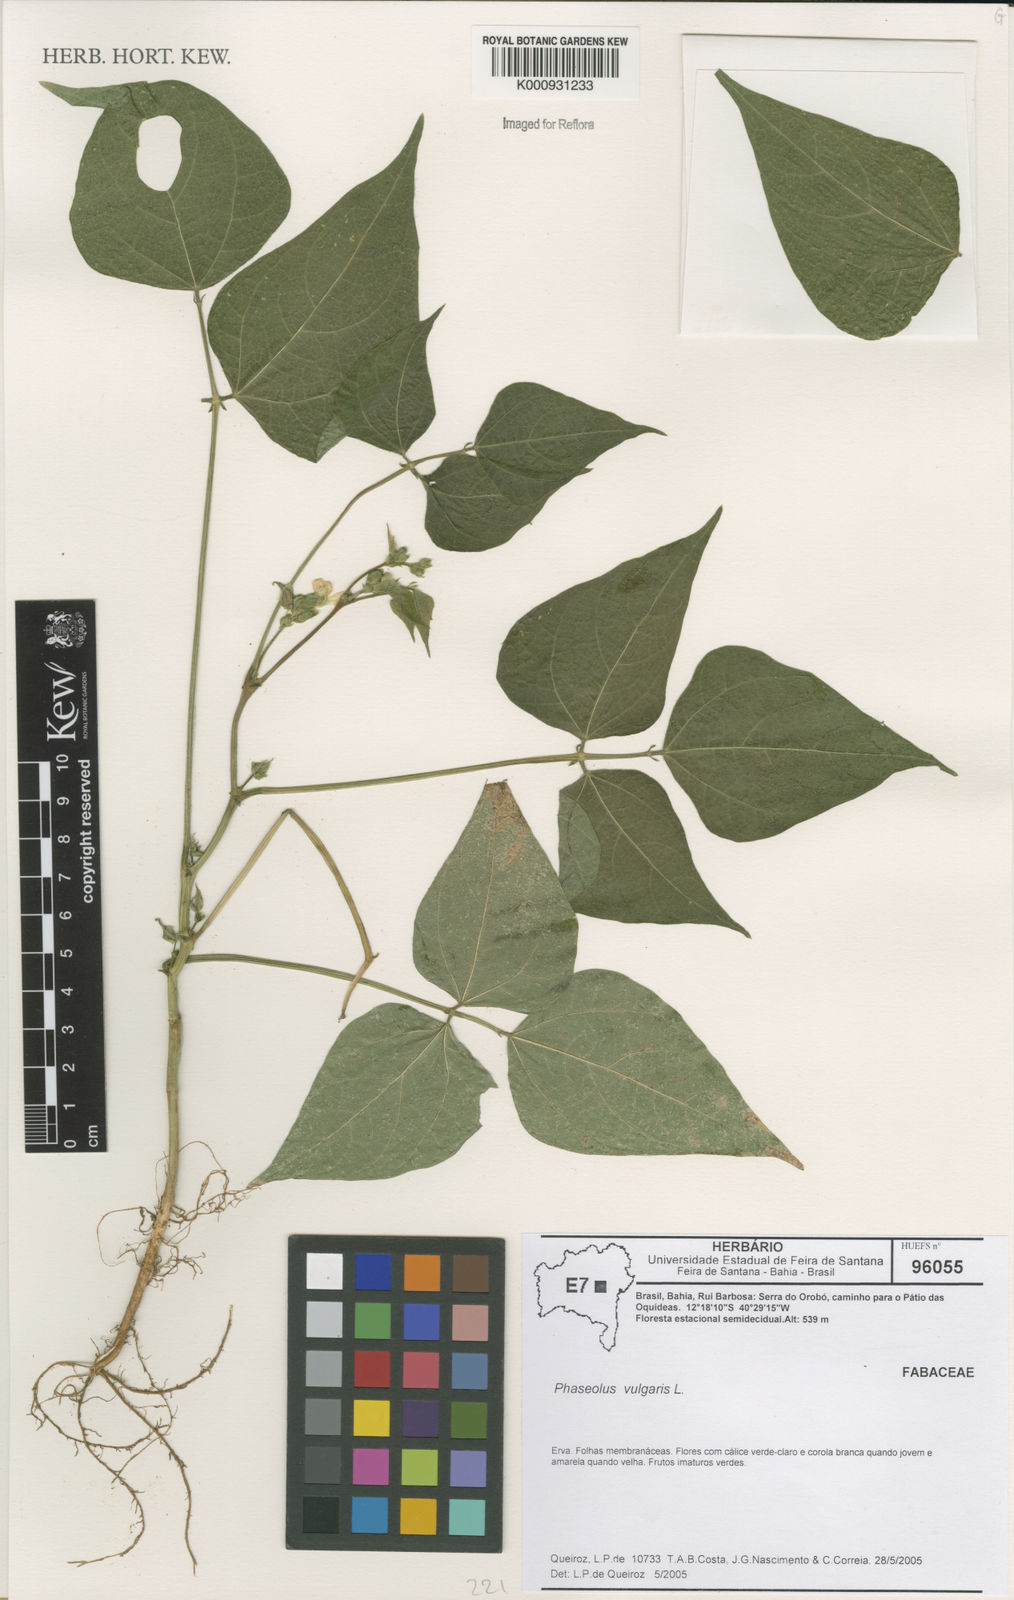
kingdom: Plantae
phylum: Tracheophyta
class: Magnoliopsida
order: Fabales
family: Fabaceae
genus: Phaseolus
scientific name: Phaseolus
